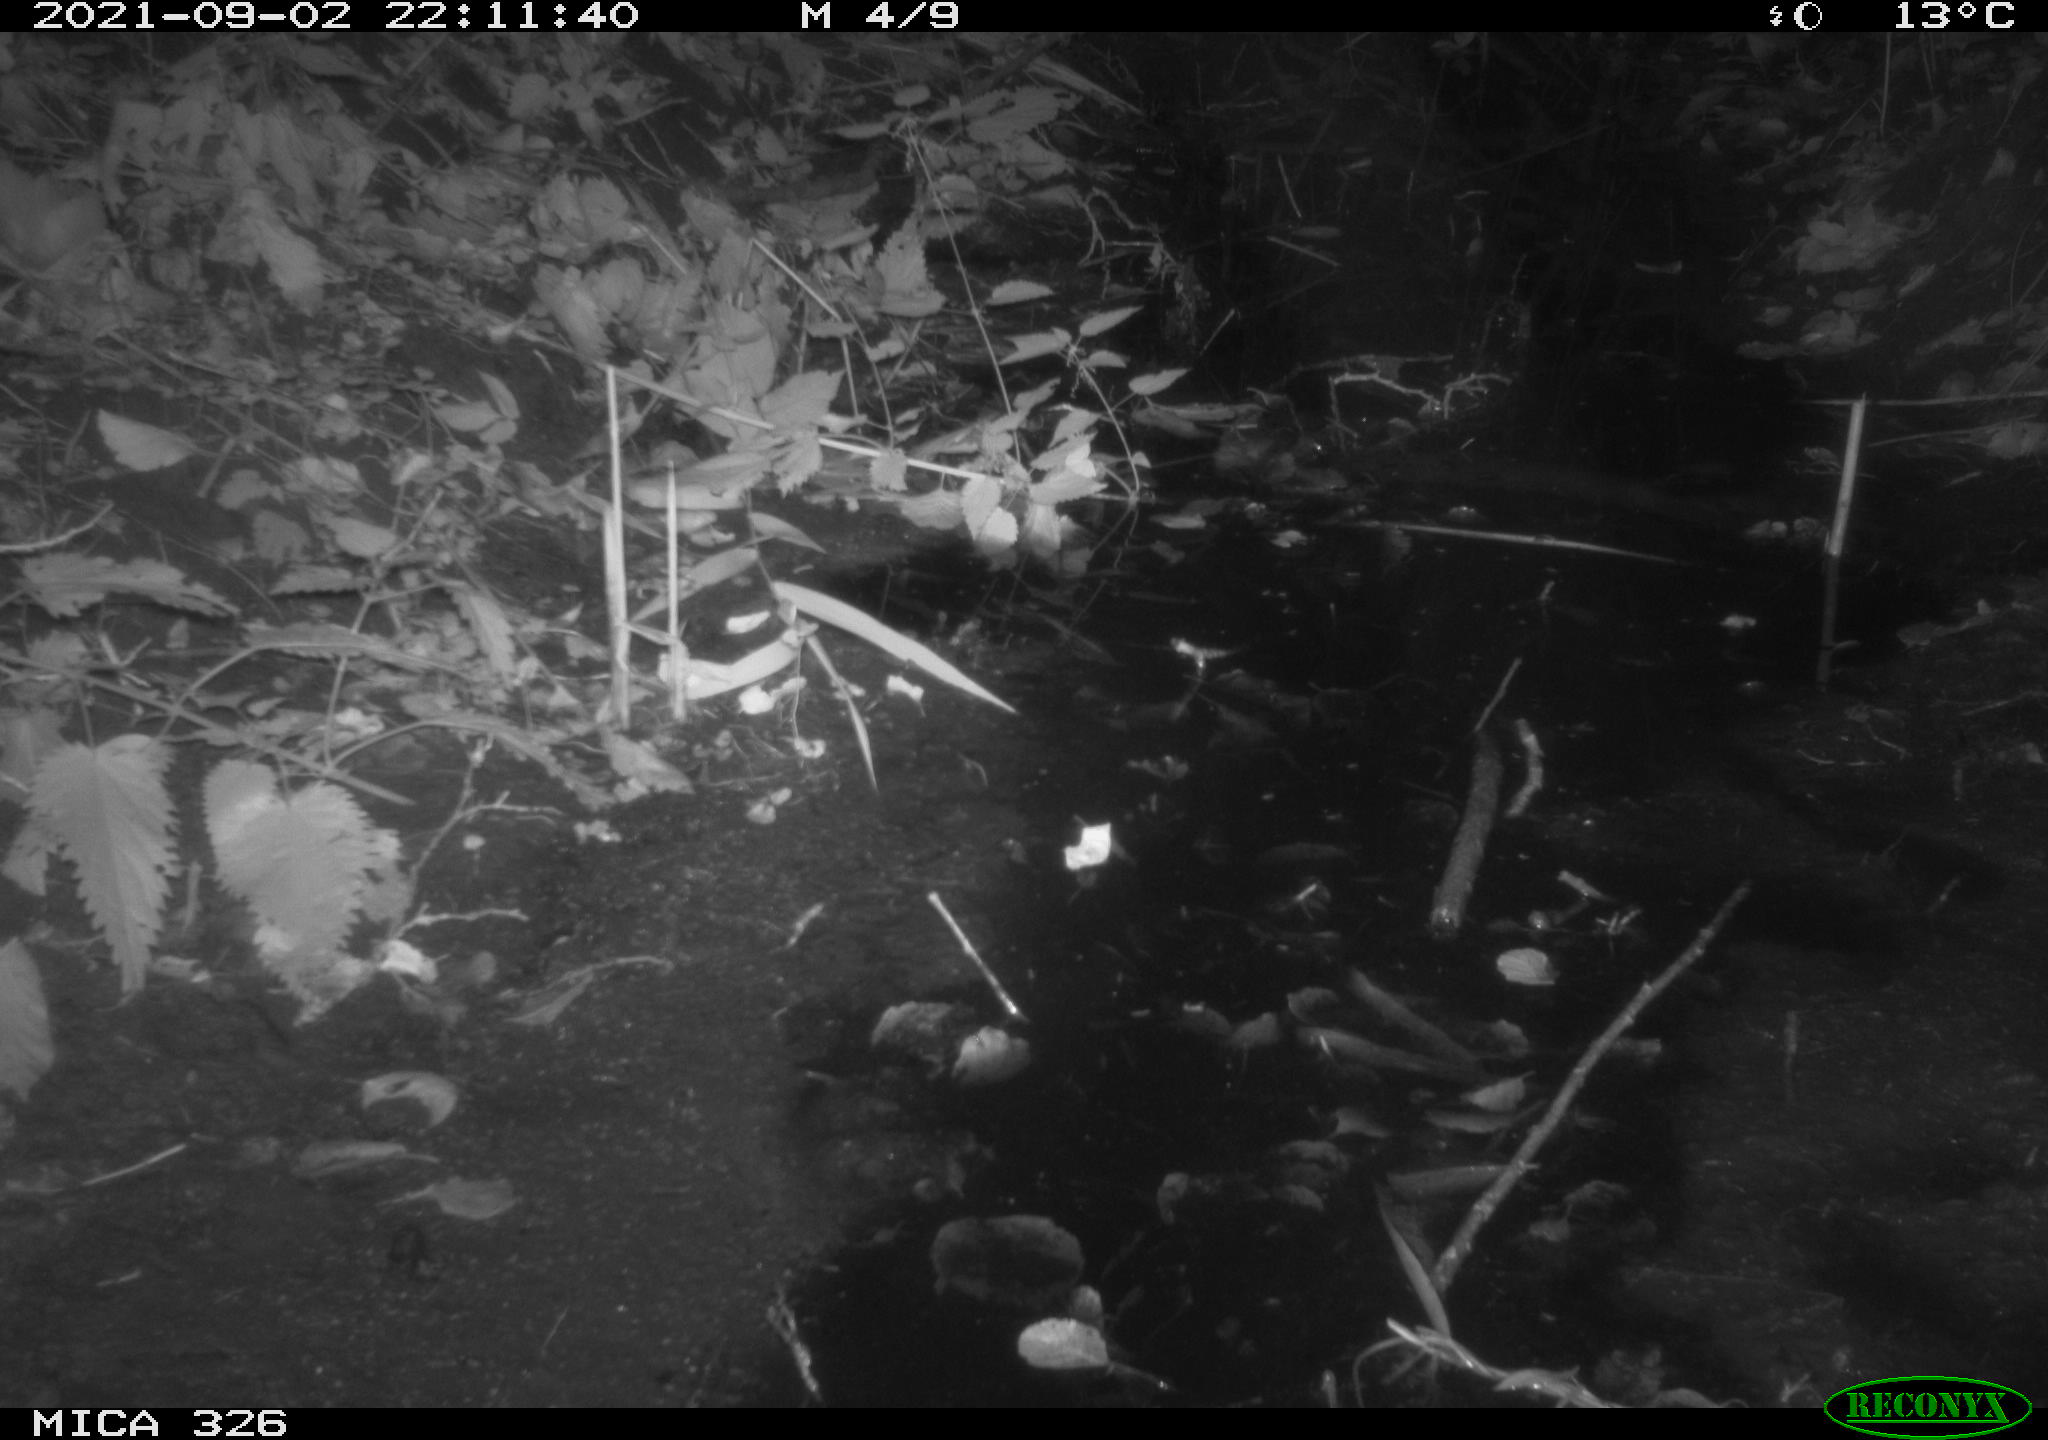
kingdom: Animalia
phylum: Chordata
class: Mammalia
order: Rodentia
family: Muridae
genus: Rattus
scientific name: Rattus norvegicus
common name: Brown rat
